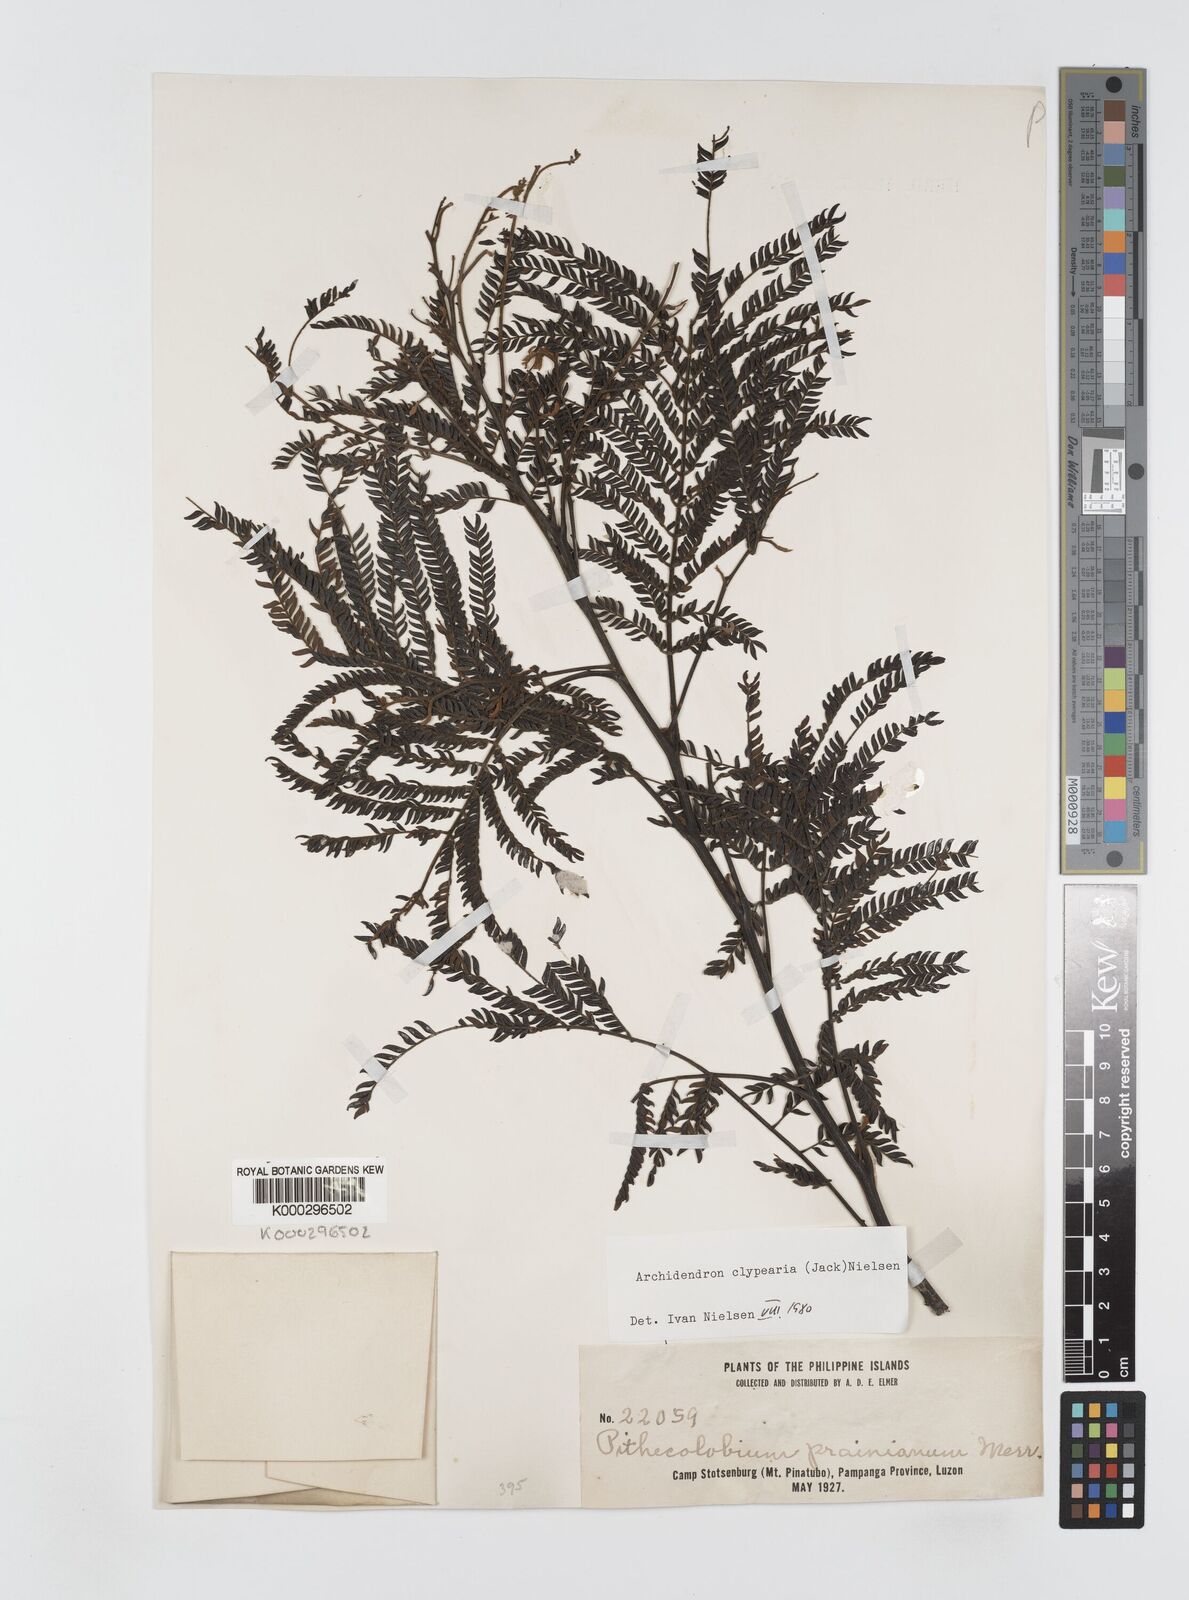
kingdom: Plantae
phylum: Tracheophyta
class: Magnoliopsida
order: Fabales
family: Fabaceae
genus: Archidendron
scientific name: Archidendron clypearia
